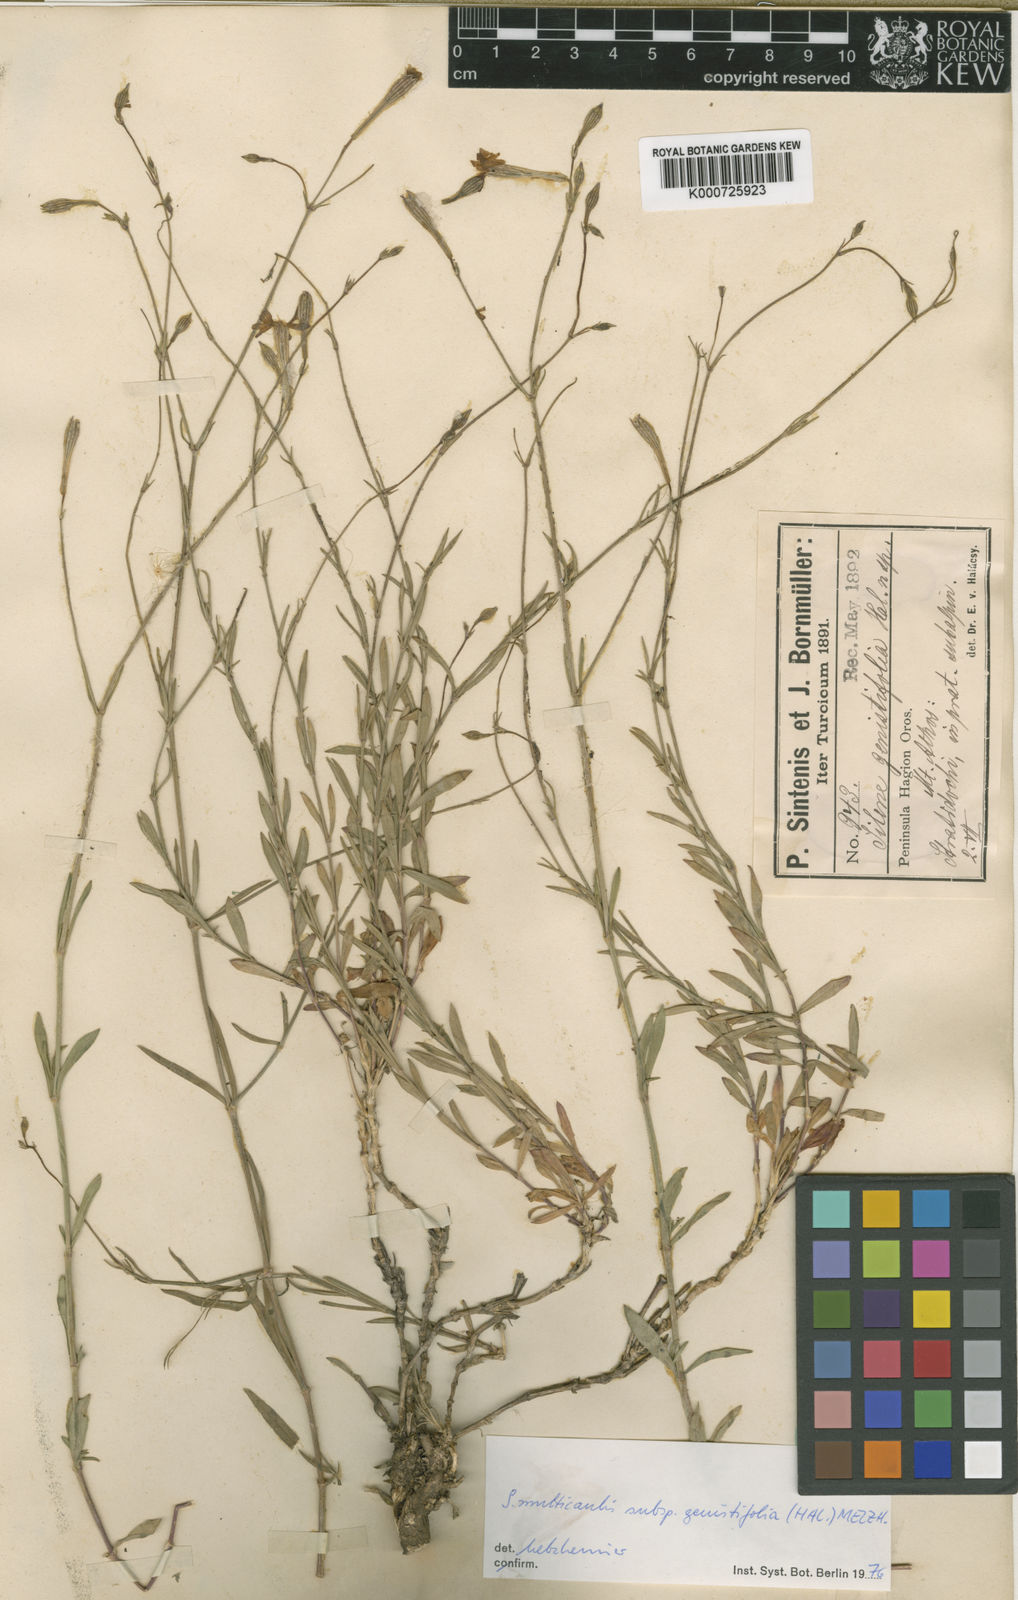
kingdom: Plantae
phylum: Tracheophyta
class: Magnoliopsida
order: Caryophyllales
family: Caryophyllaceae
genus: Silene
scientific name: Silene
